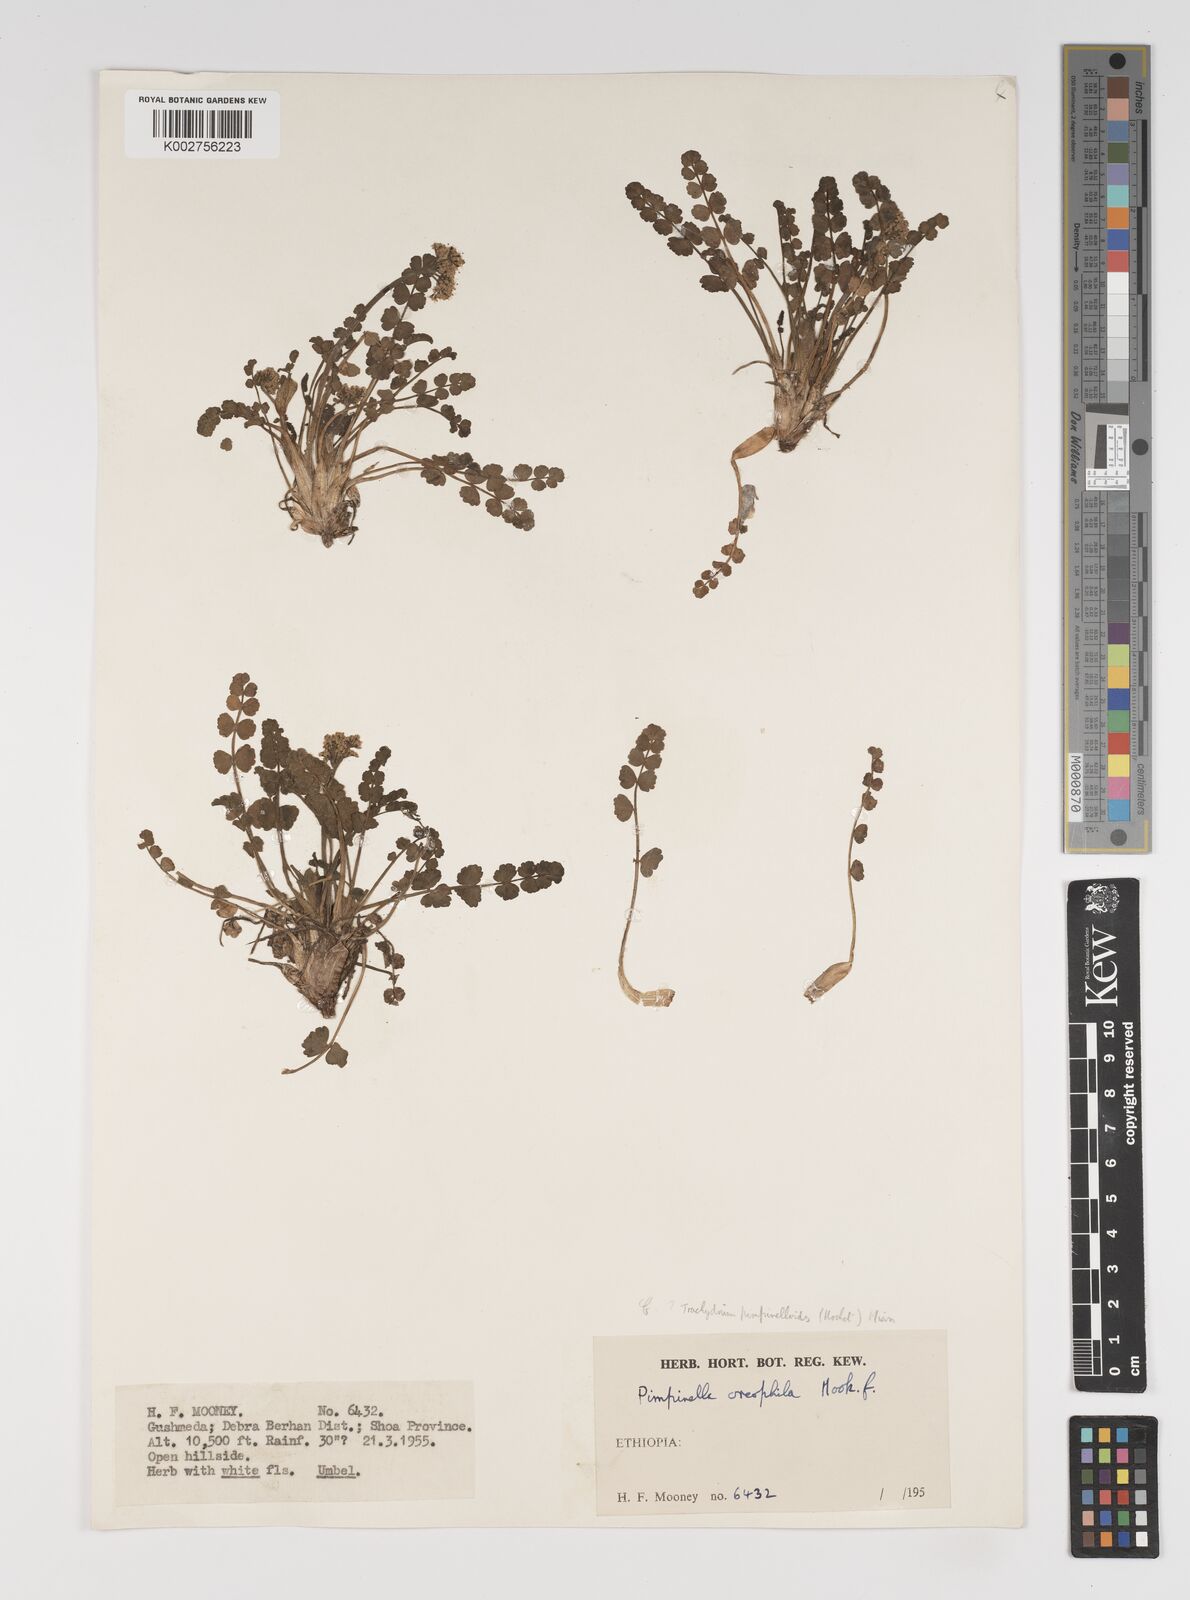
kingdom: Plantae
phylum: Tracheophyta
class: Magnoliopsida
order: Apiales
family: Apiaceae
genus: Pimpinella
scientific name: Pimpinella oreophila
